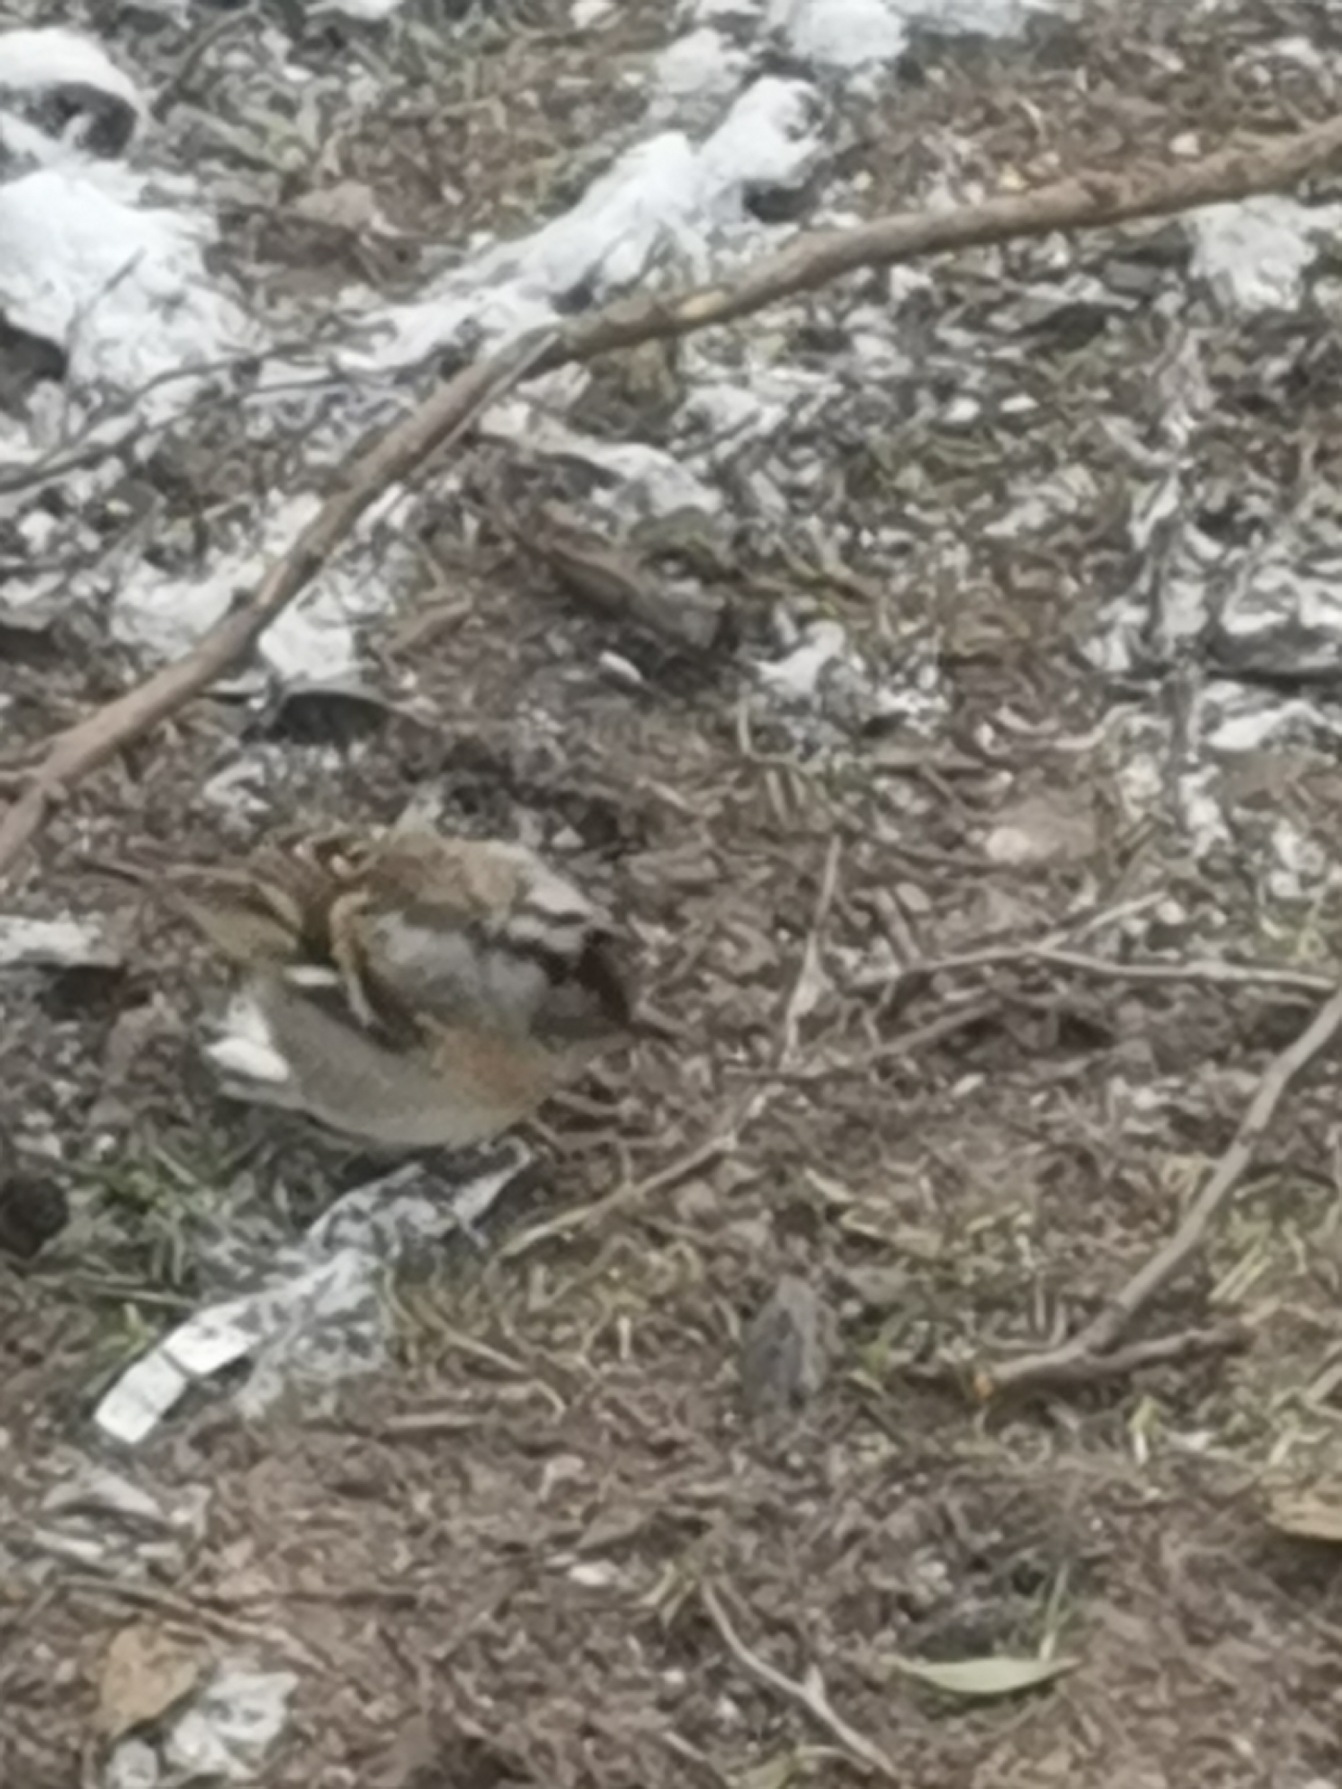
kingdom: Animalia
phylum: Chordata
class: Aves
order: Passeriformes
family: Fringillidae
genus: Fringilla
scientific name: Fringilla montifringilla
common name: Kvækerfinke
